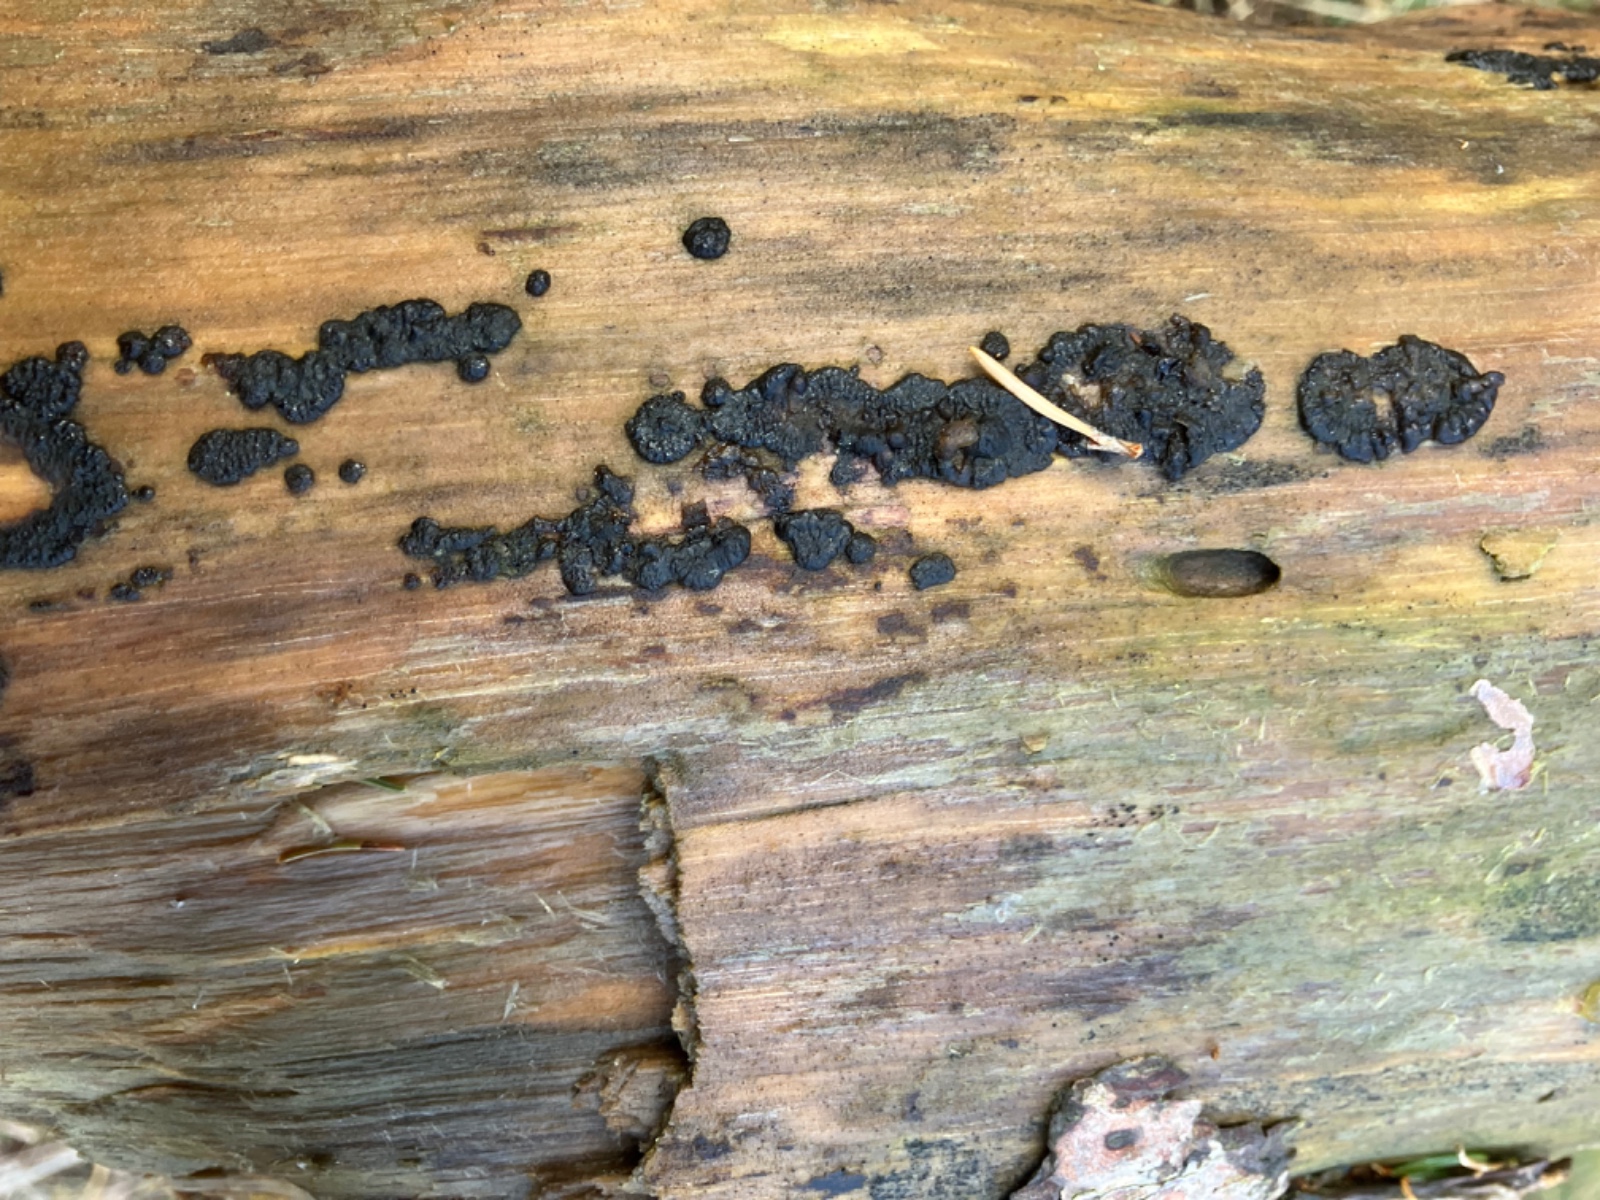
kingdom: Fungi
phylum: Basidiomycota
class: Agaricomycetes
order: Auriculariales
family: Auriculariaceae
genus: Exidia
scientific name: Exidia pithya
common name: gran-bævretop
